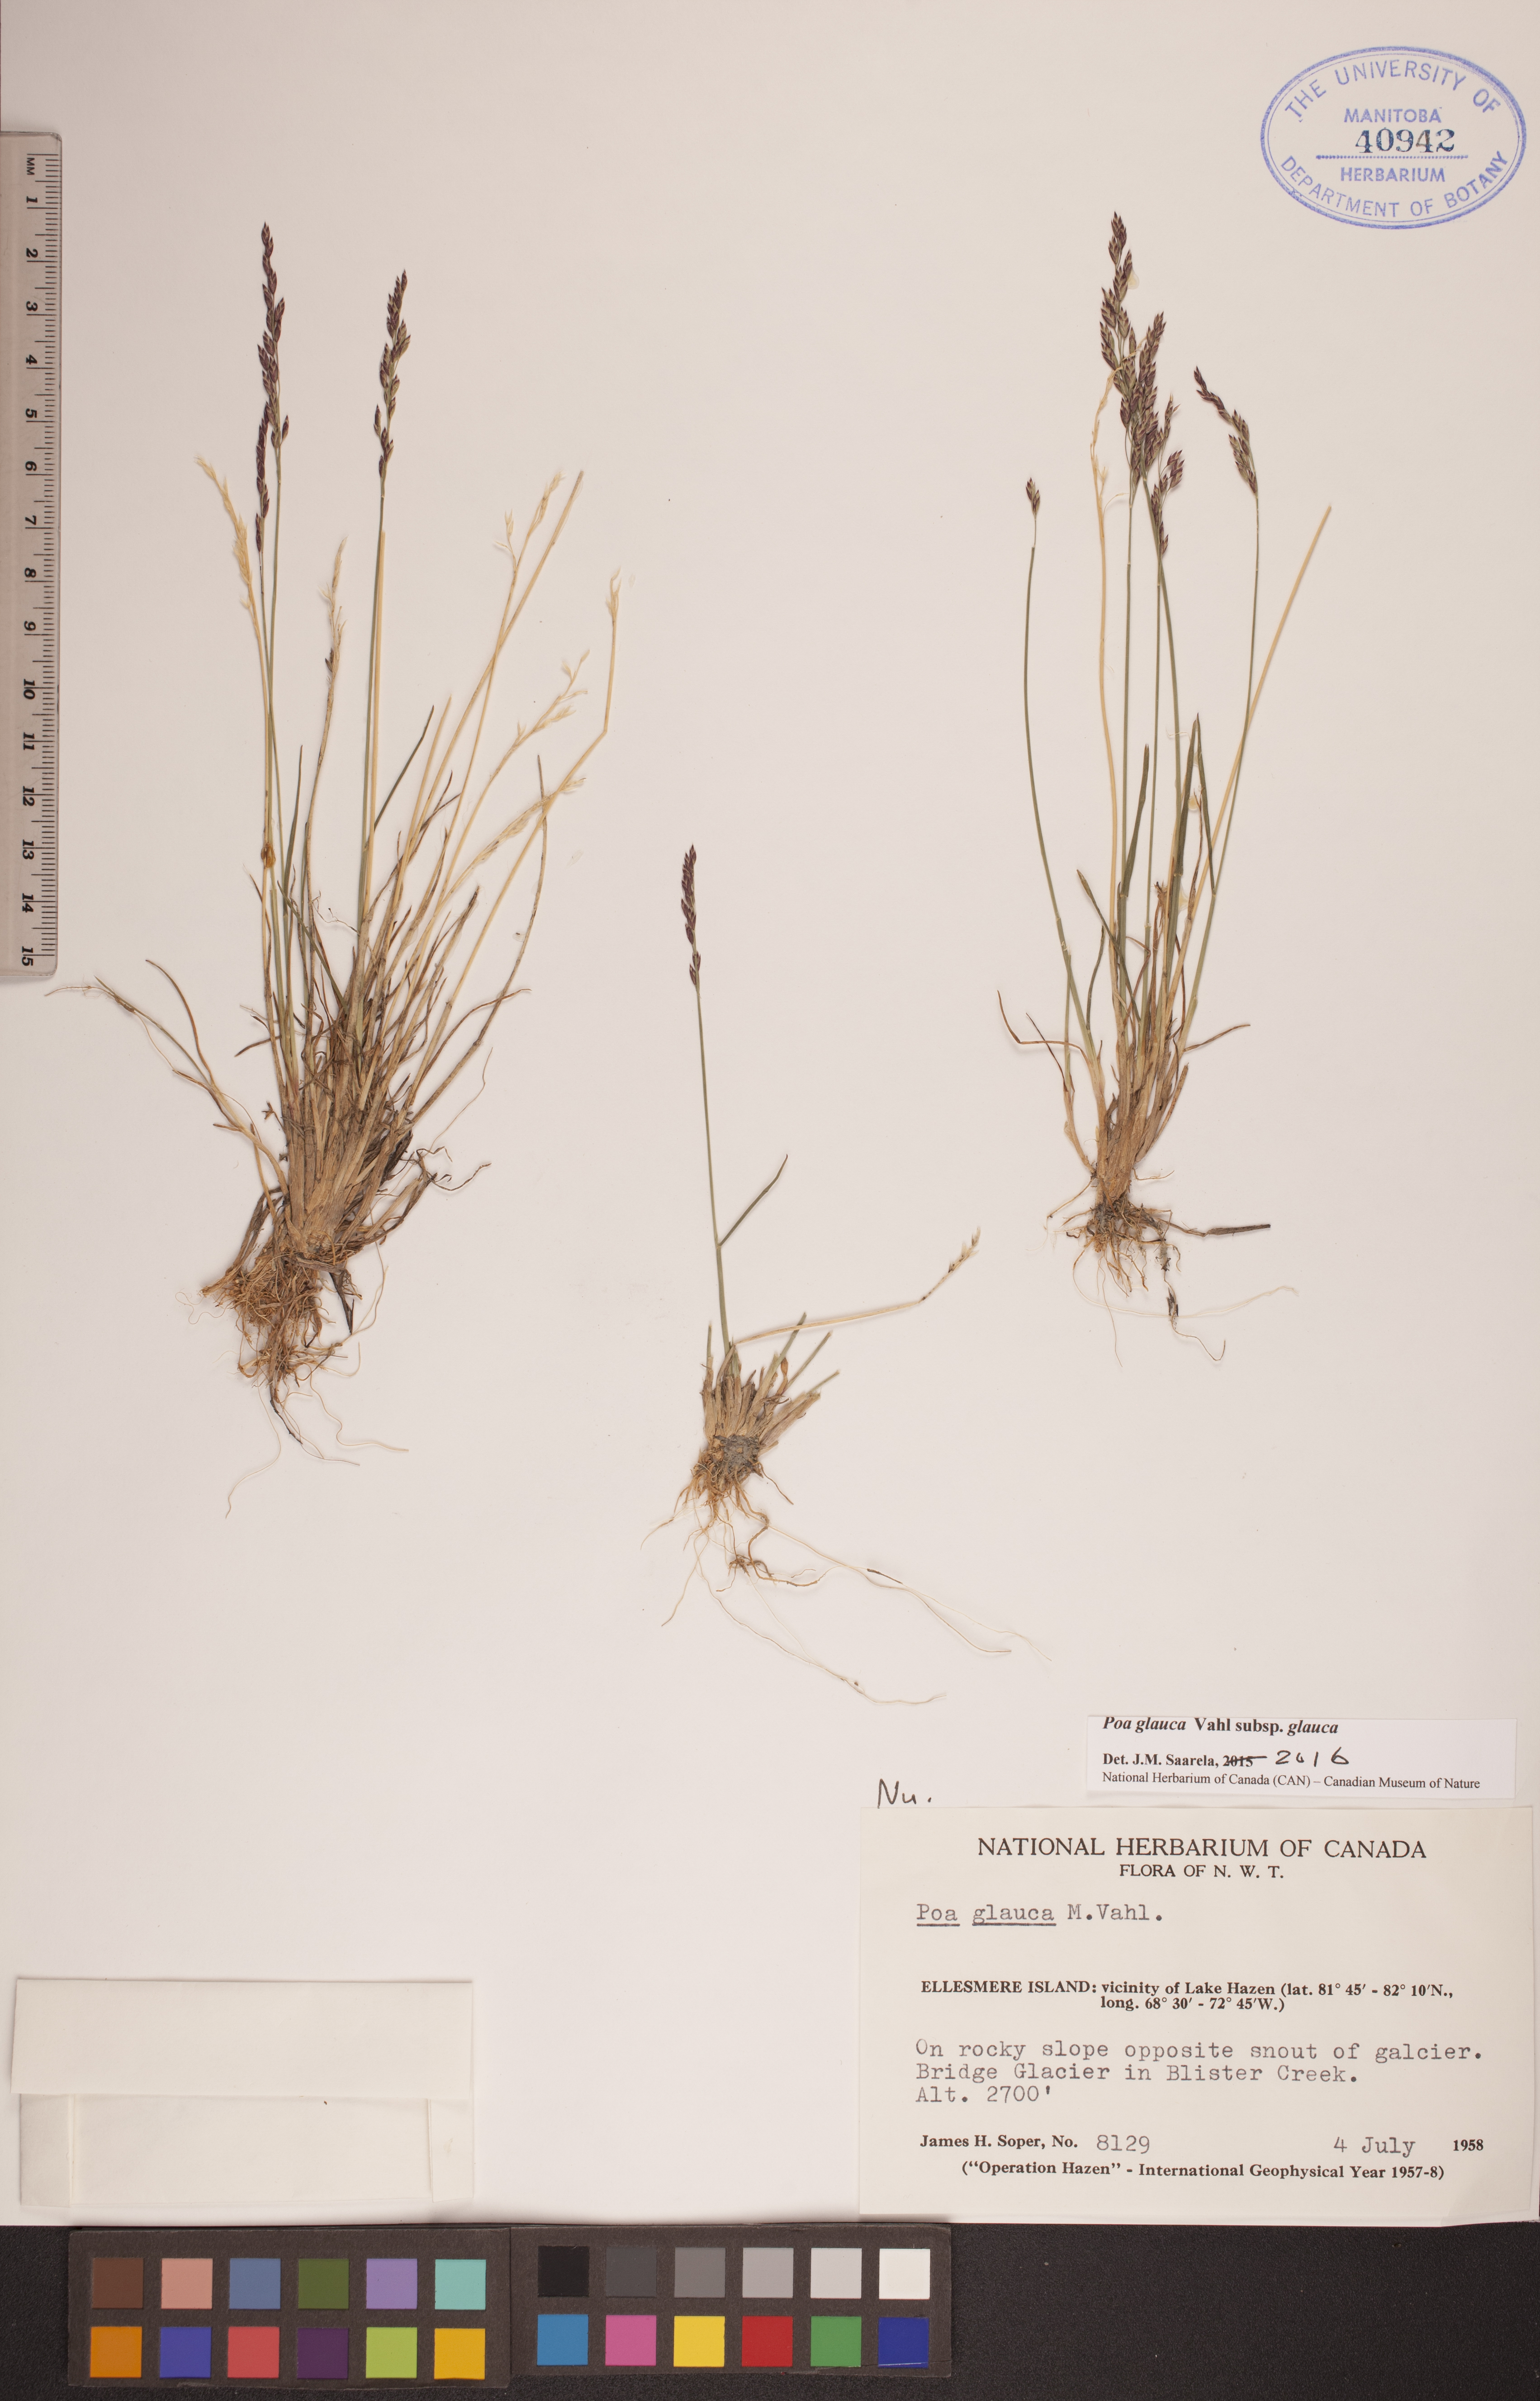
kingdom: Plantae
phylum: Tracheophyta
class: Liliopsida
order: Poales
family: Poaceae
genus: Poa
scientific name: Poa glauca
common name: Glaucous bluegrass
